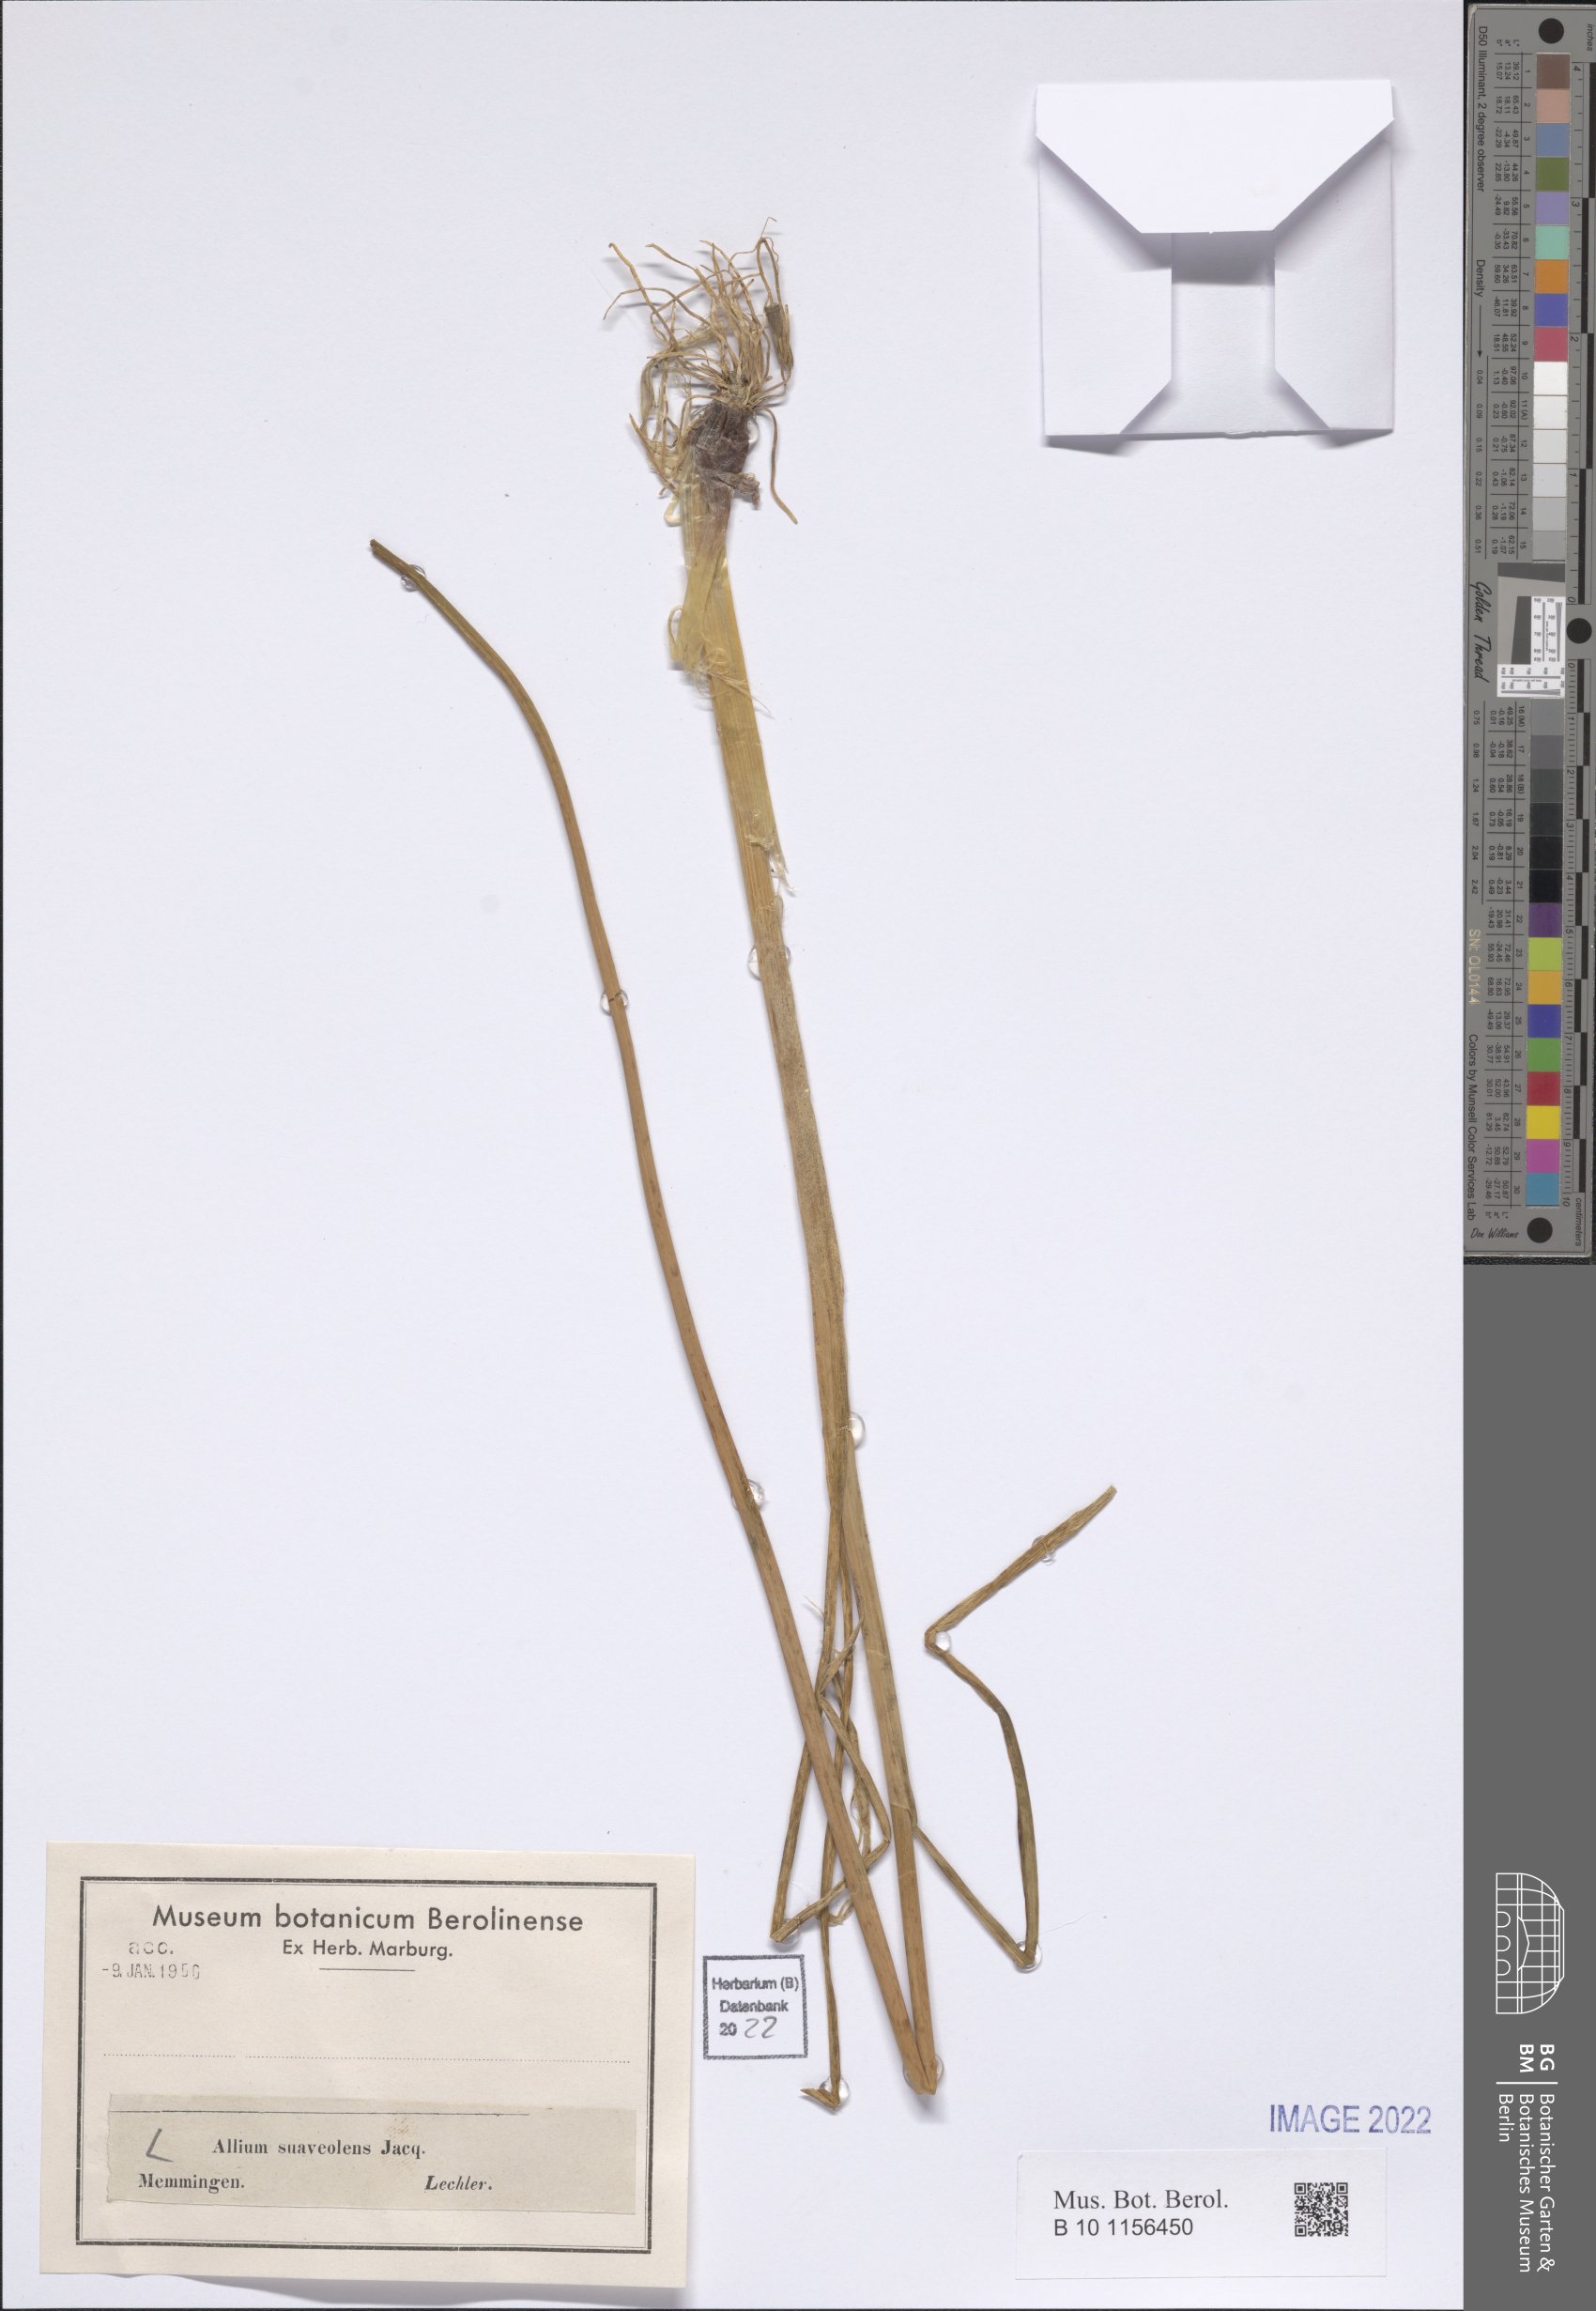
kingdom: Plantae
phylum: Tracheophyta
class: Liliopsida
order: Asparagales
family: Amaryllidaceae
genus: Allium
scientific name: Allium suaveolens
